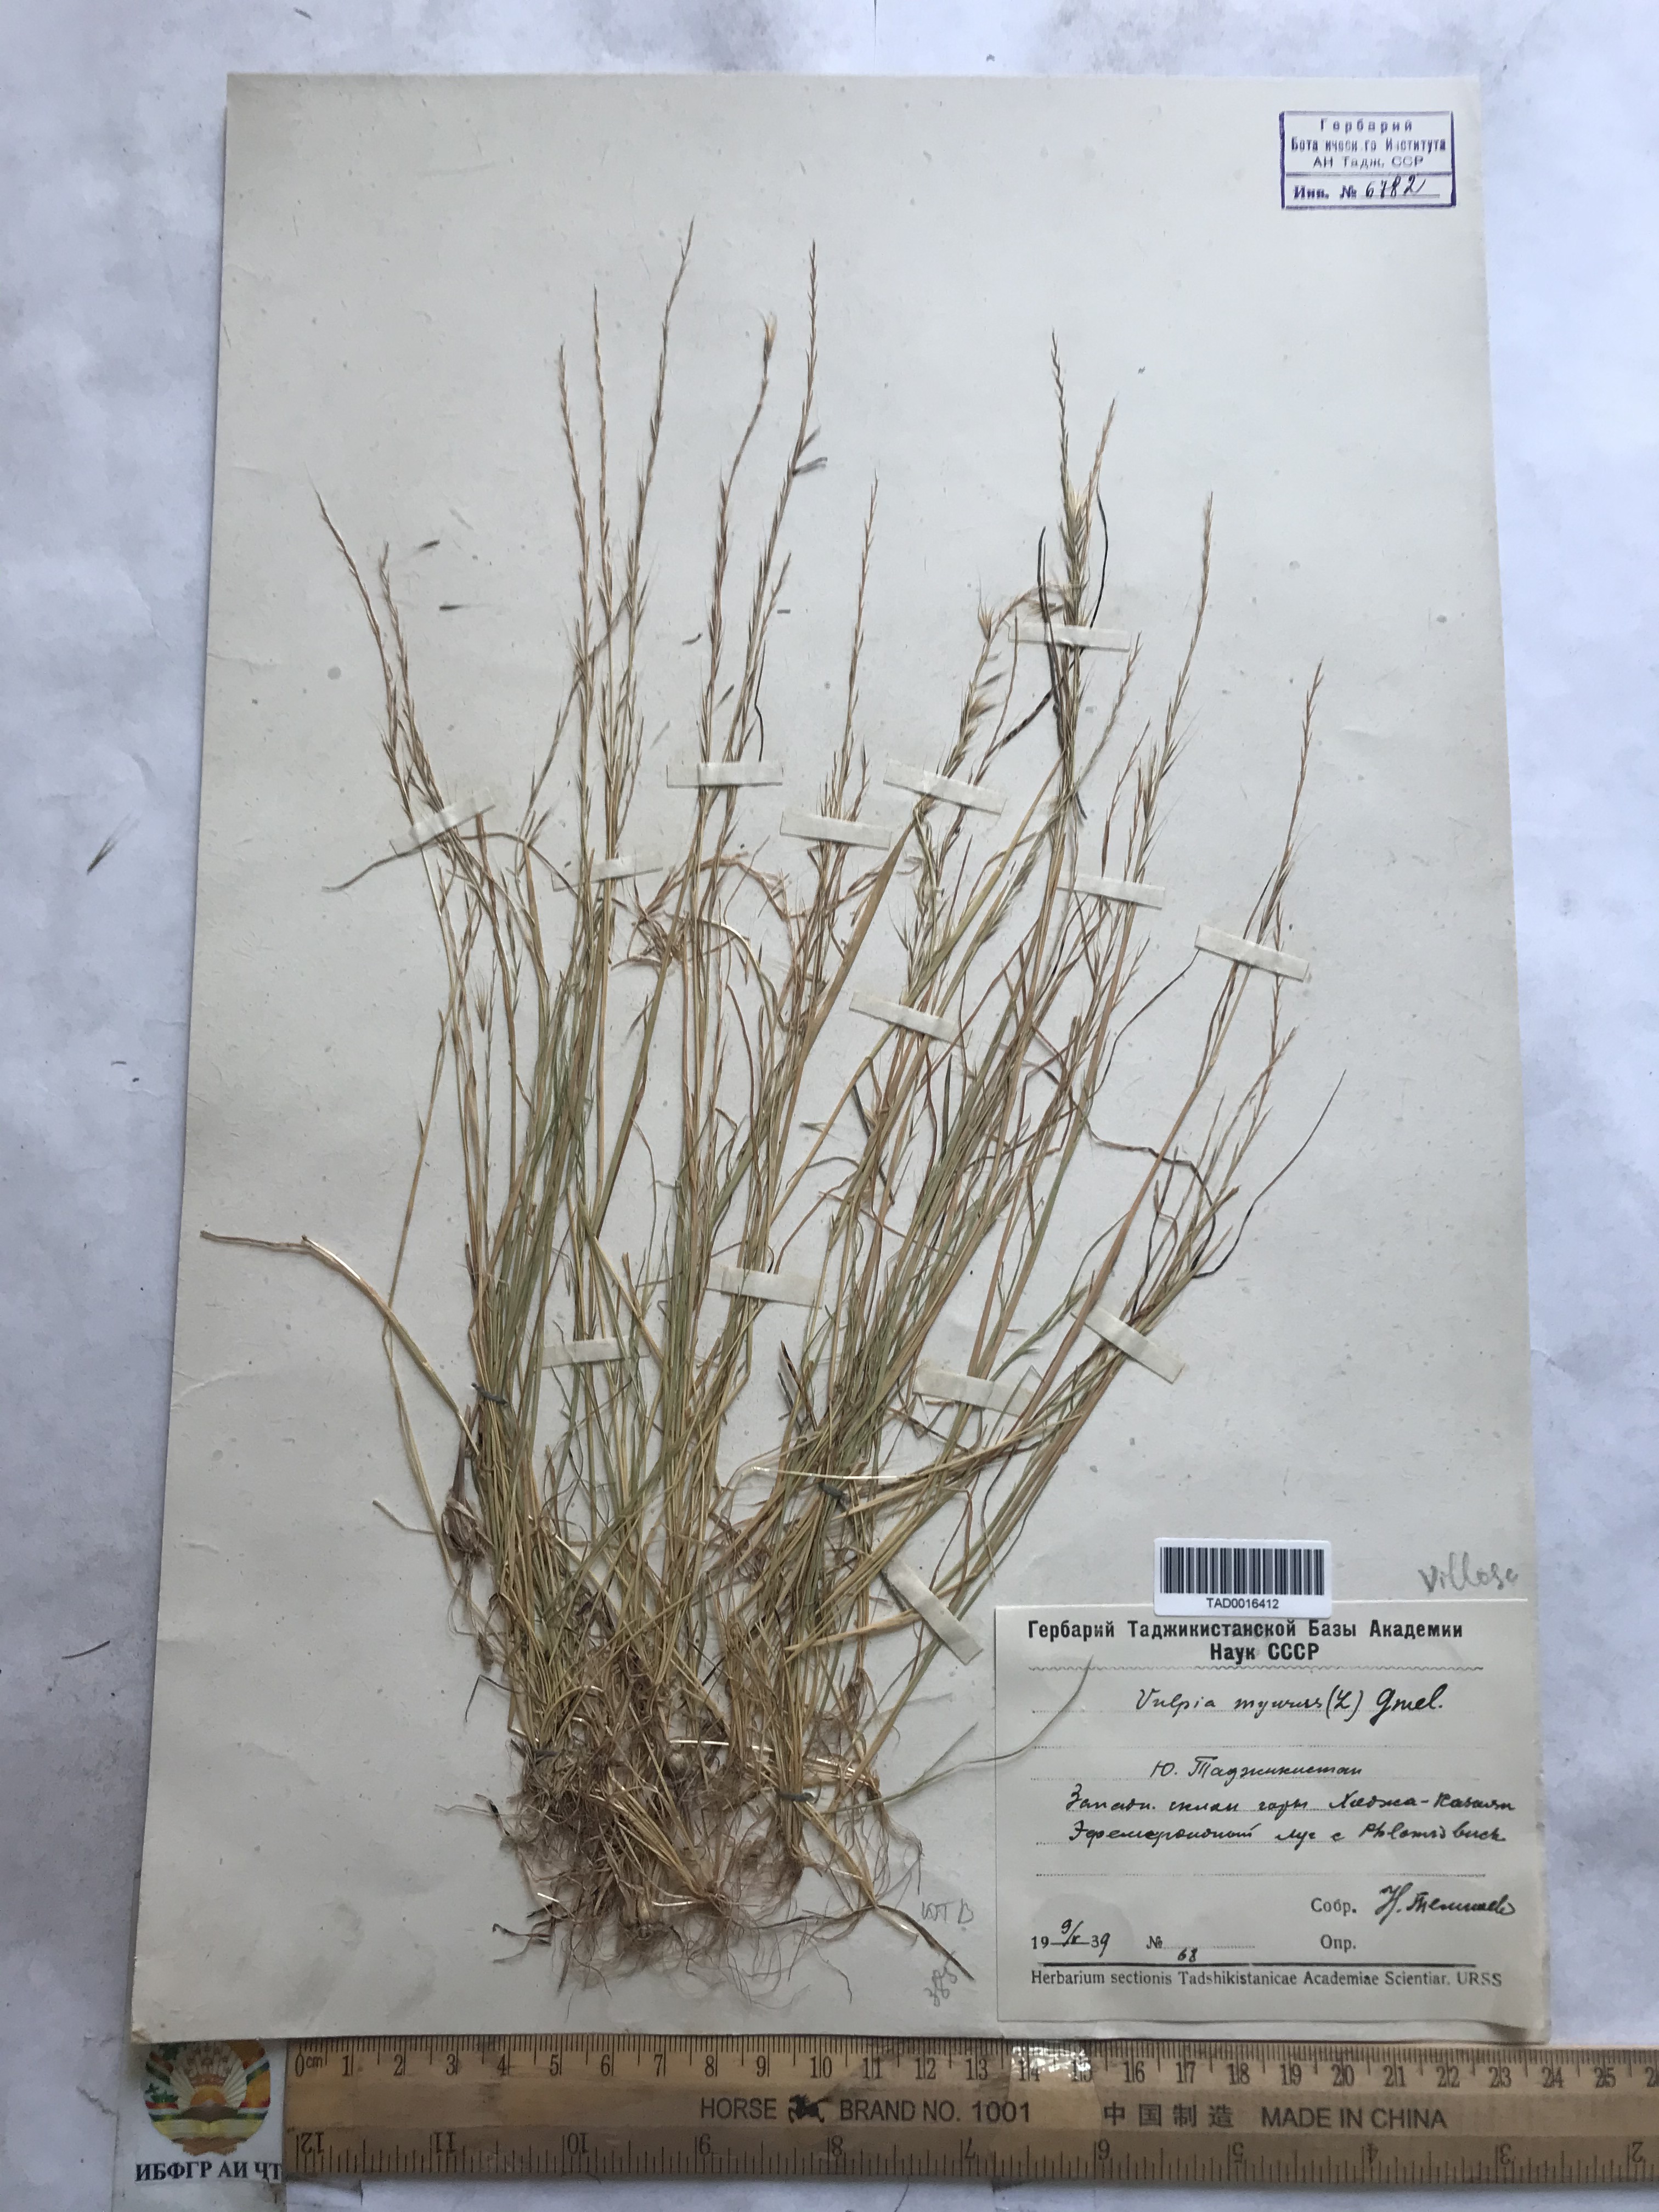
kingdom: Plantae
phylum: Tracheophyta
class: Liliopsida
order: Poales
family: Poaceae
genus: Festuca
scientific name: Festuca myuros
